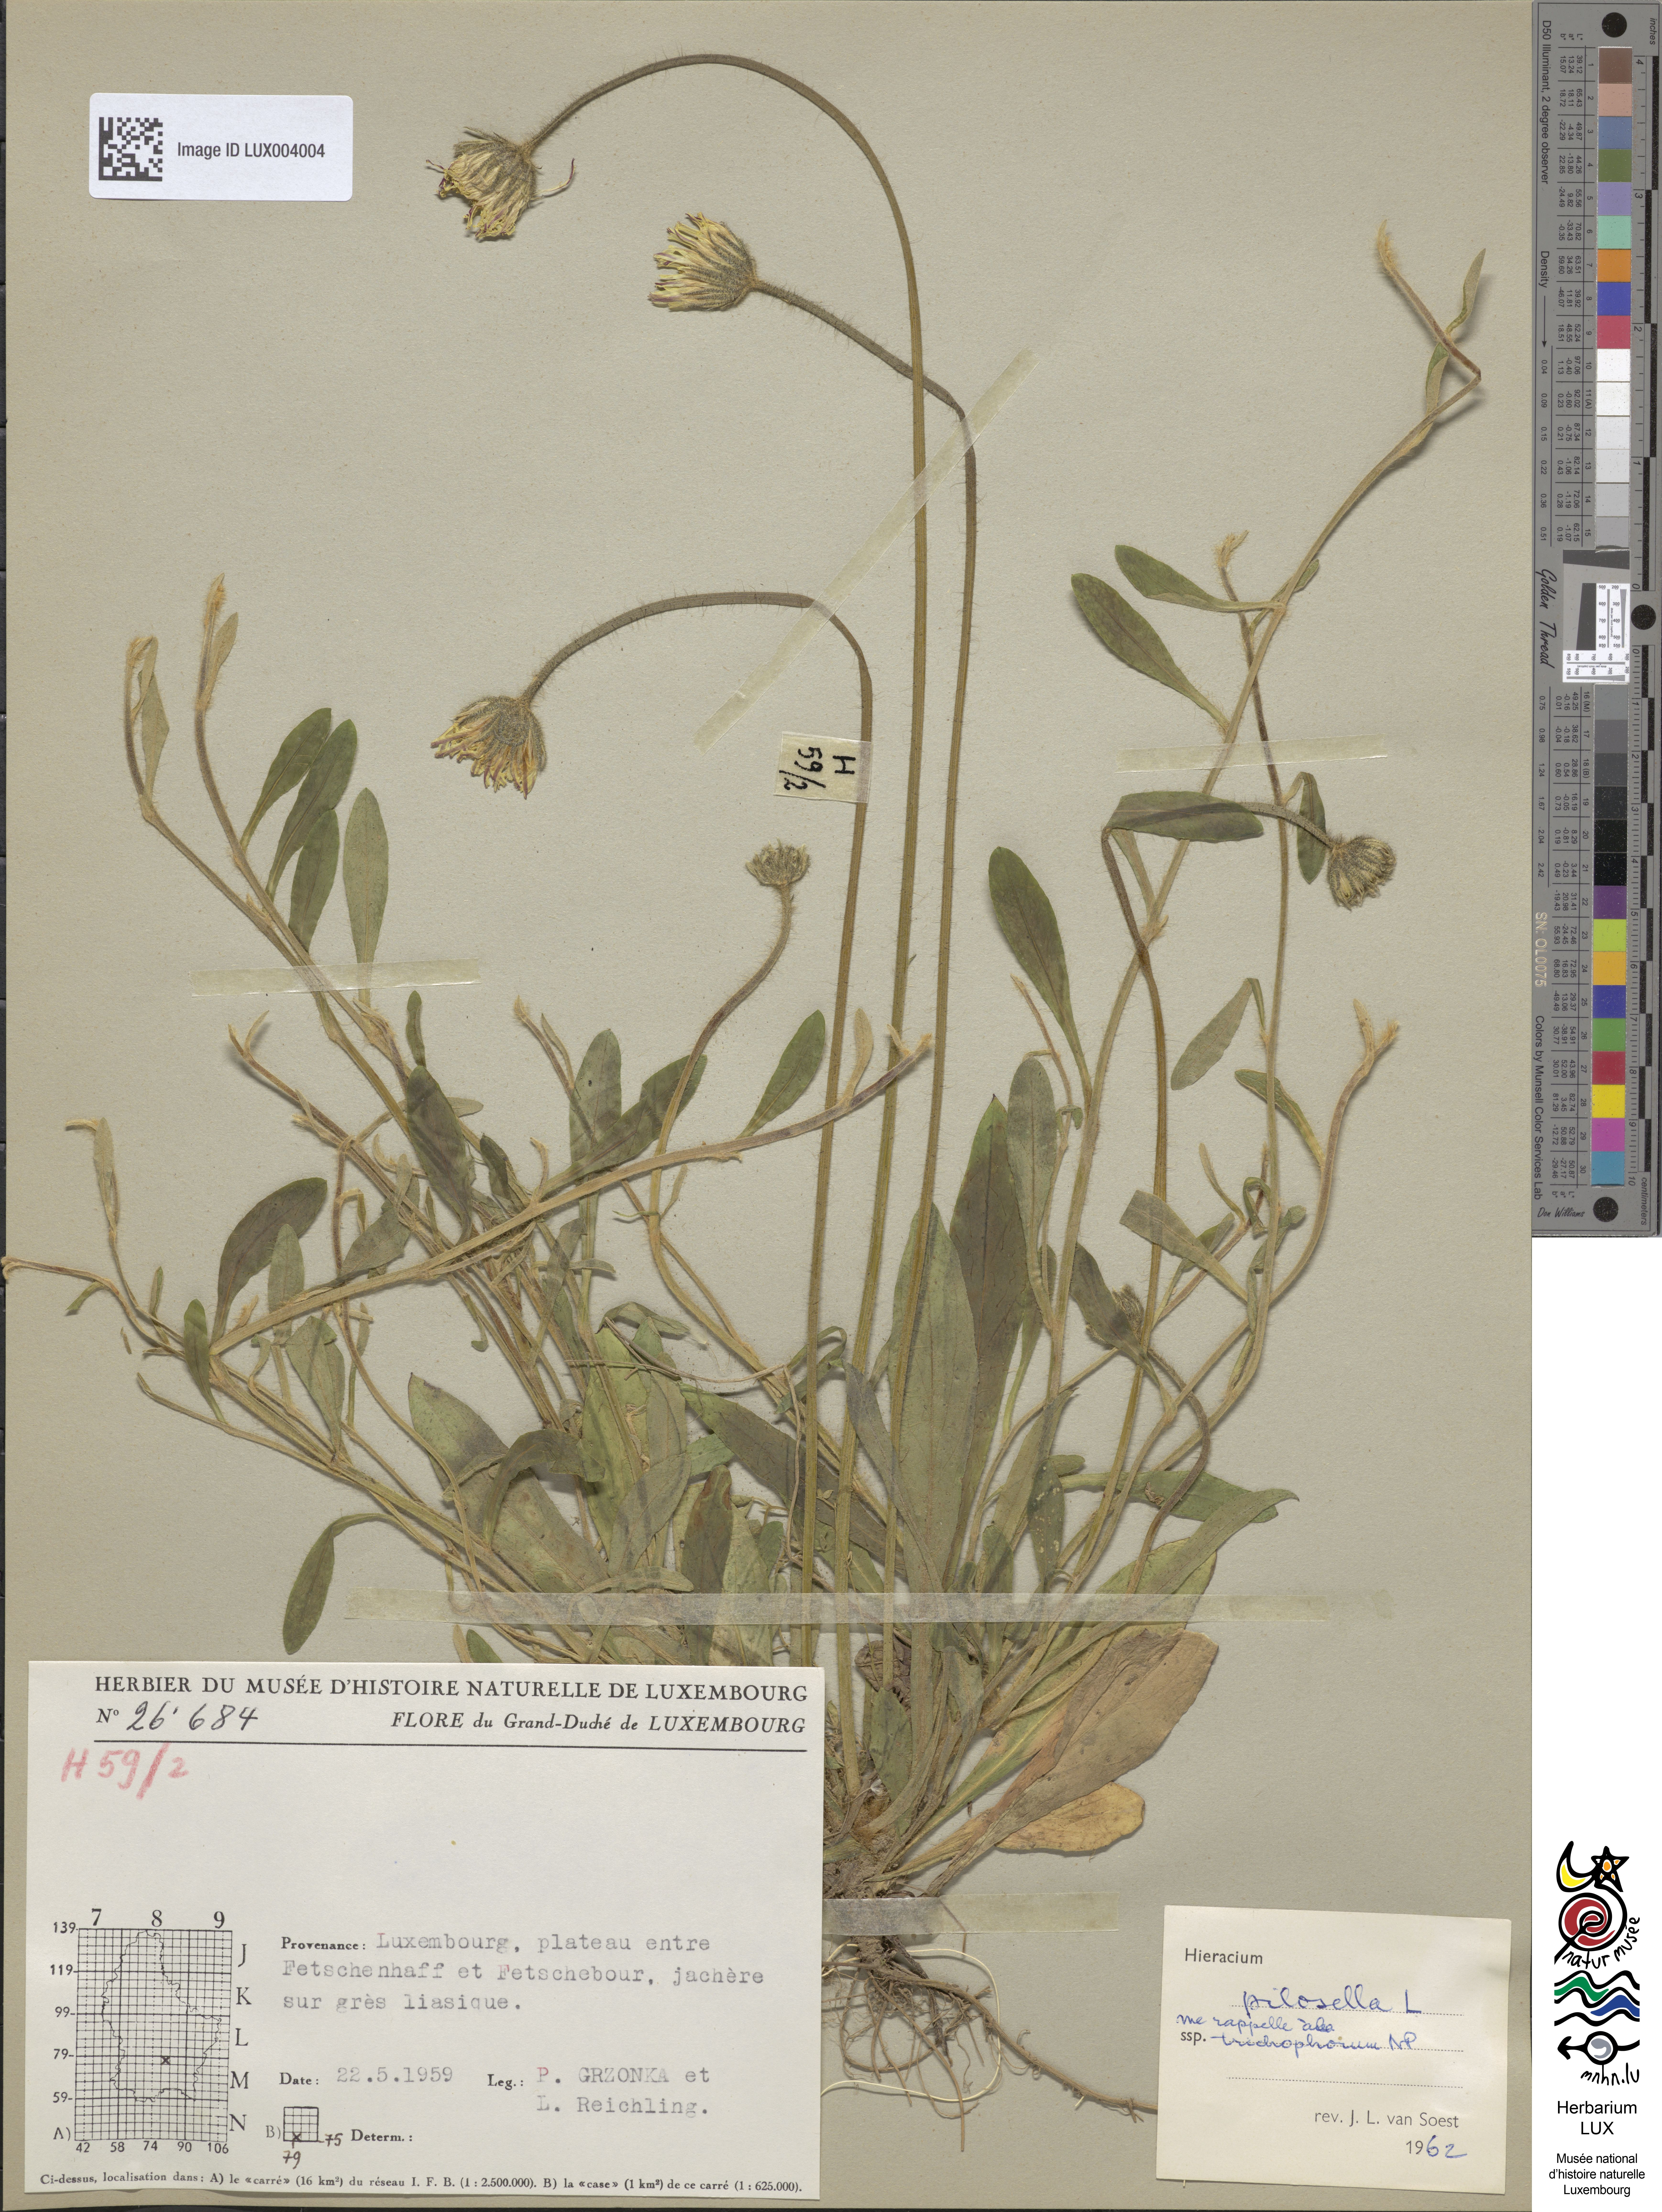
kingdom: Plantae
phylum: Tracheophyta
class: Magnoliopsida
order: Asterales
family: Asteraceae
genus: Pilosella
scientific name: Pilosella officinarum
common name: Mouse-ear hawkweed
